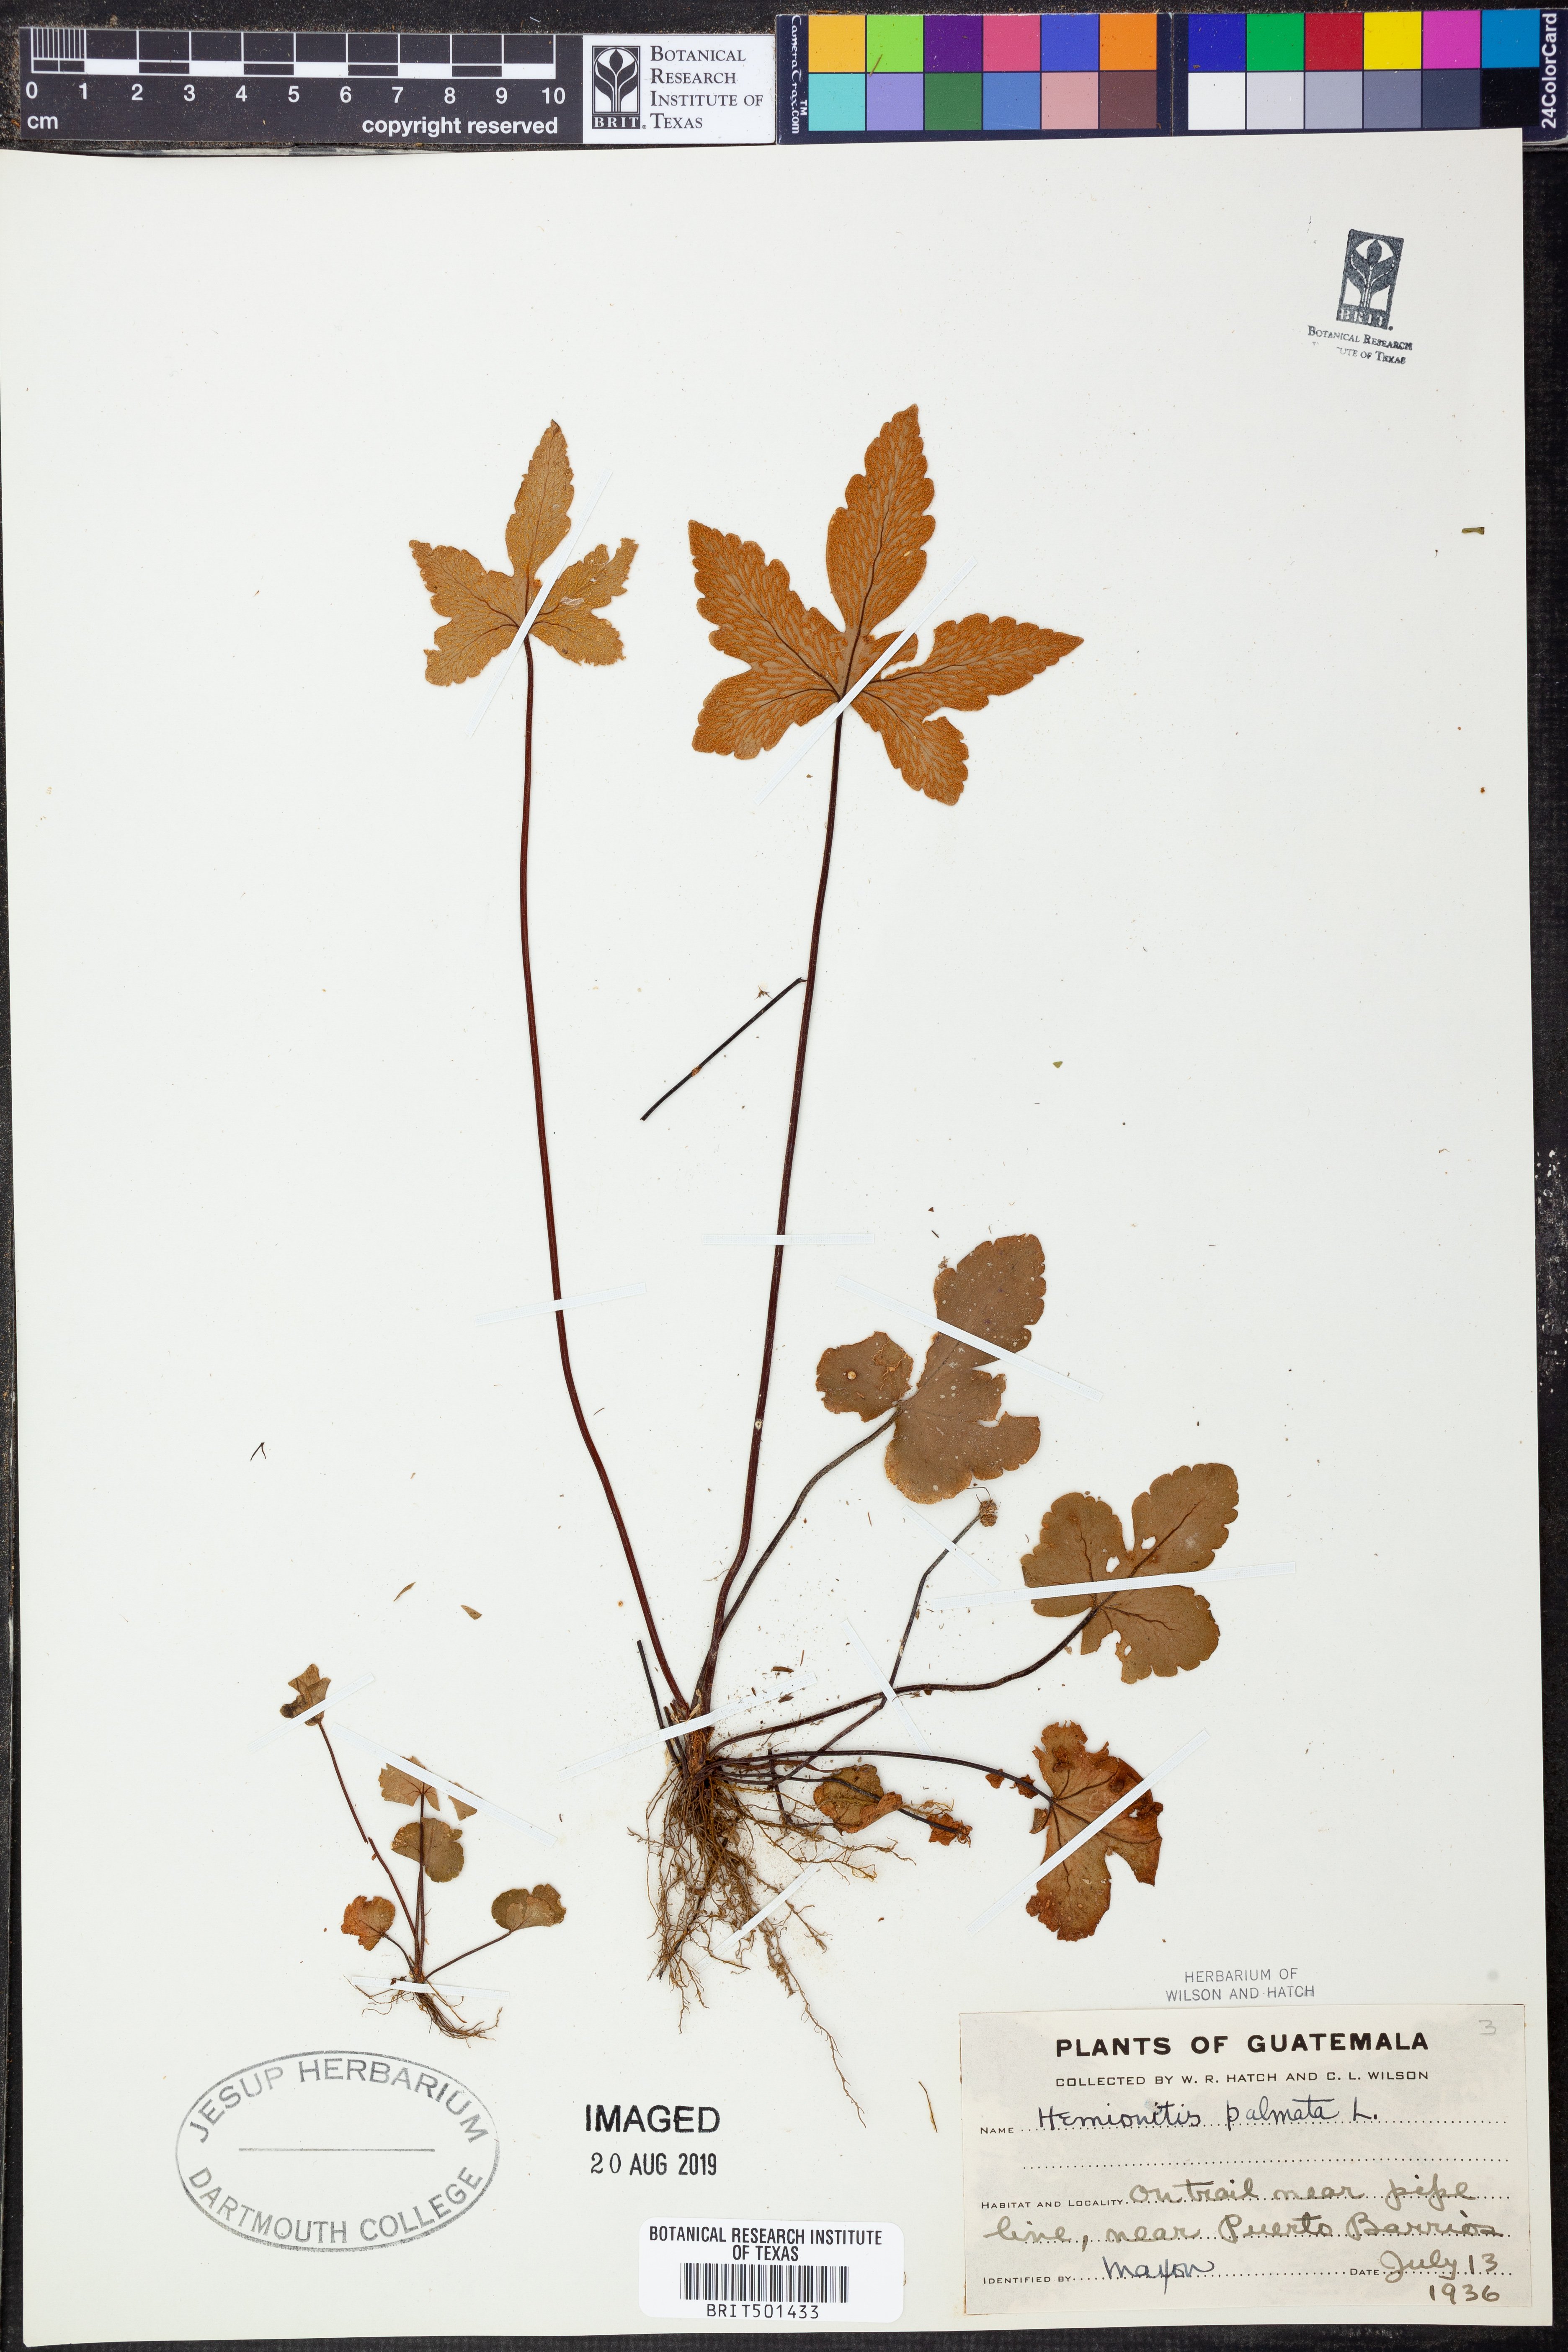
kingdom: Plantae
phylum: Tracheophyta
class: Polypodiopsida
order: Polypodiales
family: Pteridaceae
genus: Hemionitis
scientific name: Hemionitis palmata
